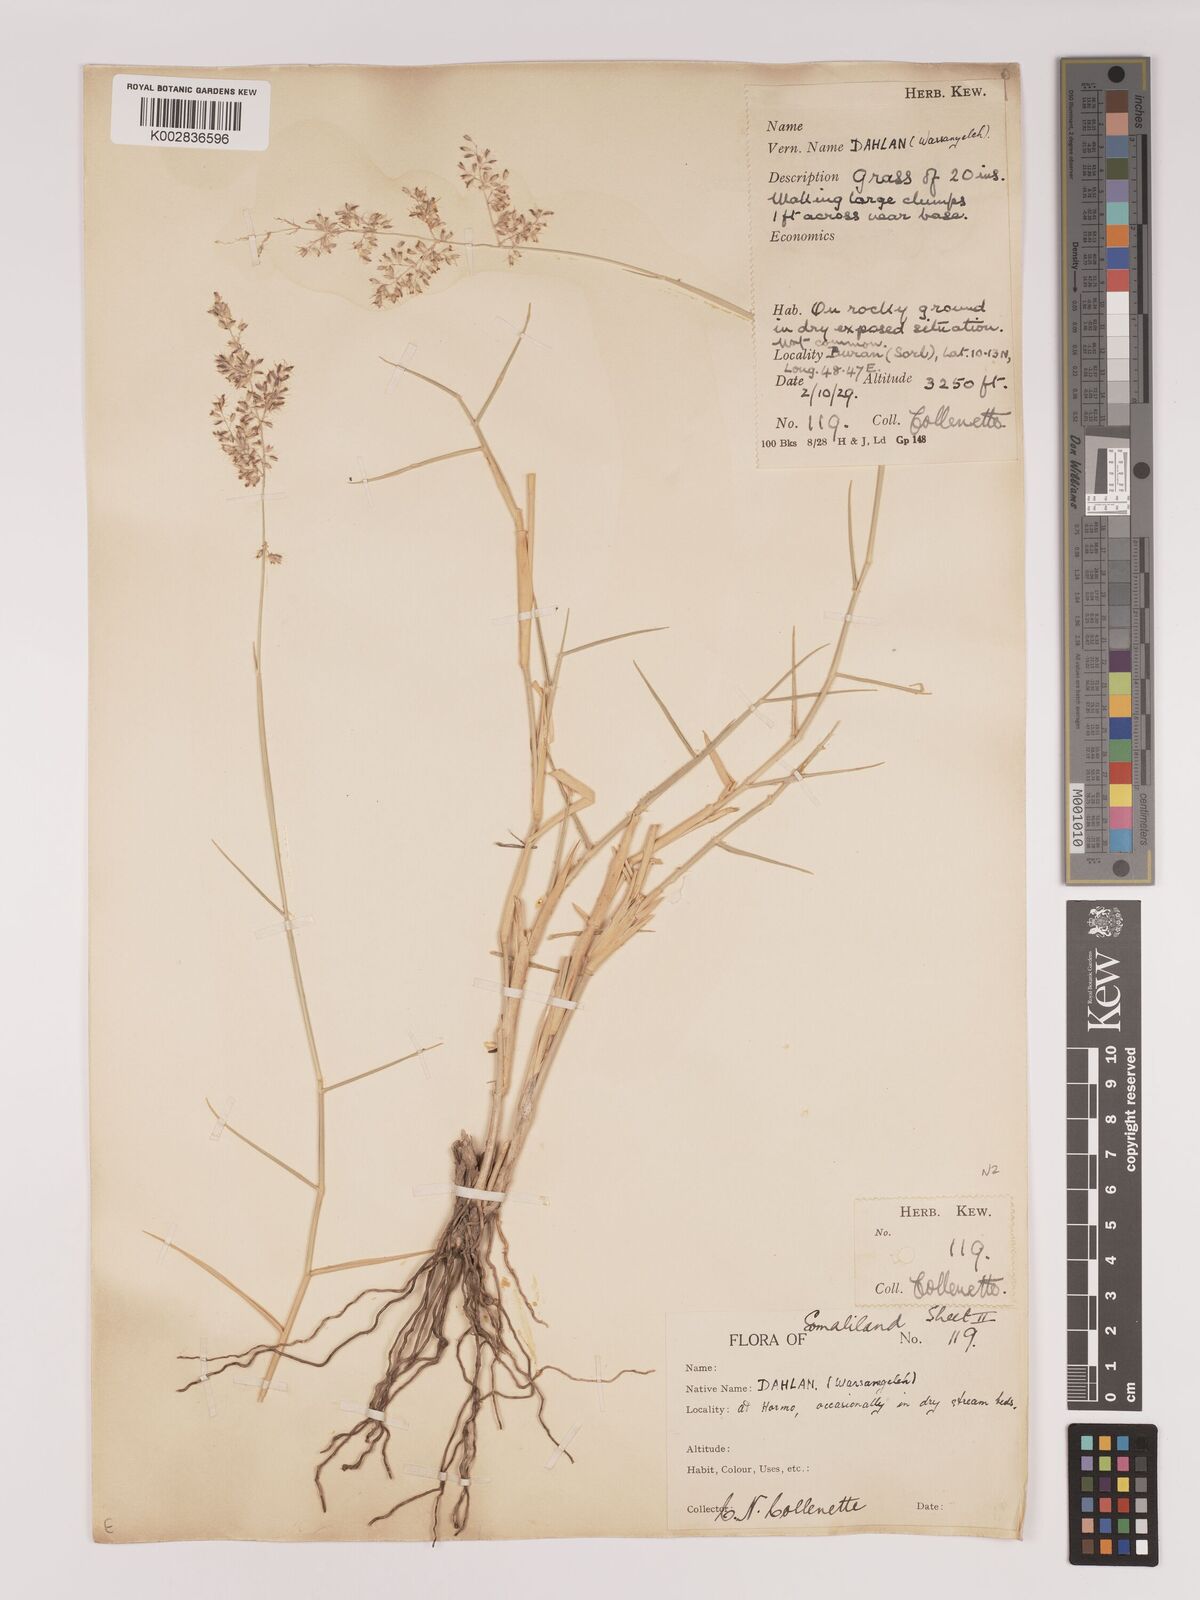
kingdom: Plantae
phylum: Tracheophyta
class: Liliopsida
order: Poales
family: Poaceae
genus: Tricholaena
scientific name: Tricholaena teneriffae
